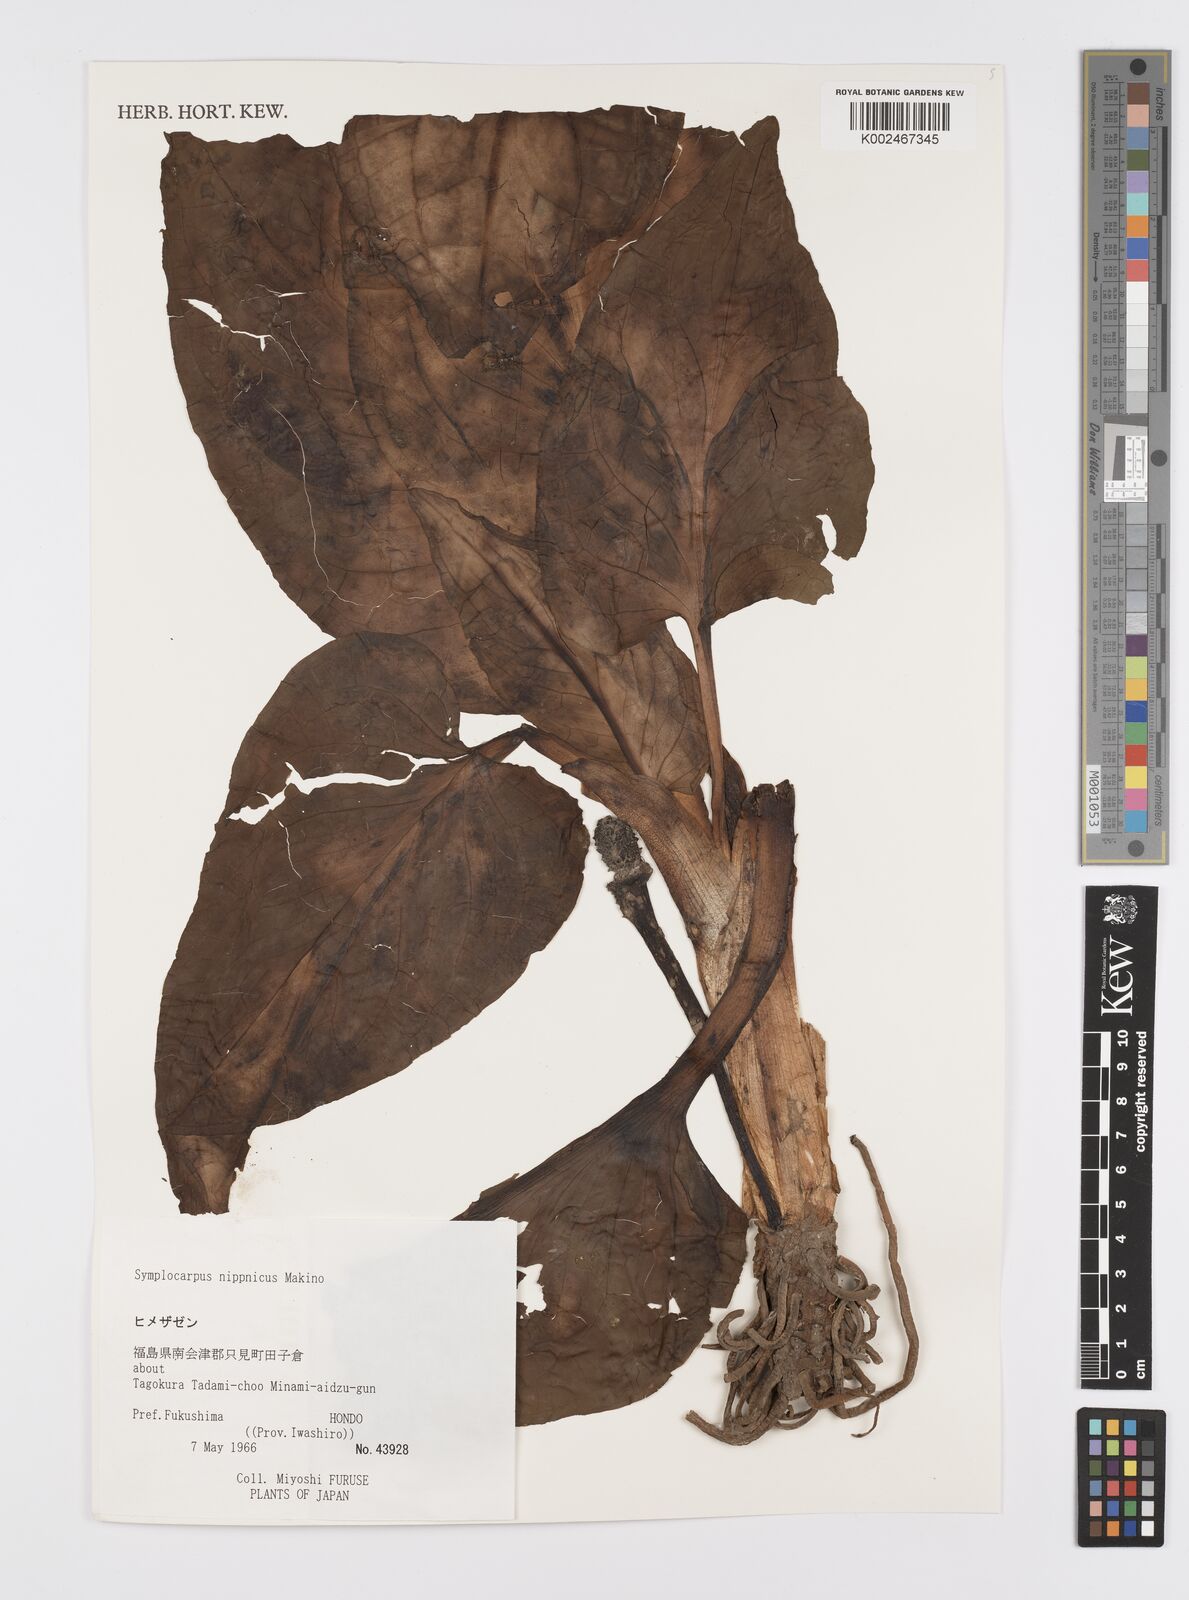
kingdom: Plantae
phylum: Tracheophyta
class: Liliopsida
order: Alismatales
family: Araceae
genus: Symplocarpus
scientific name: Symplocarpus nipponicus
